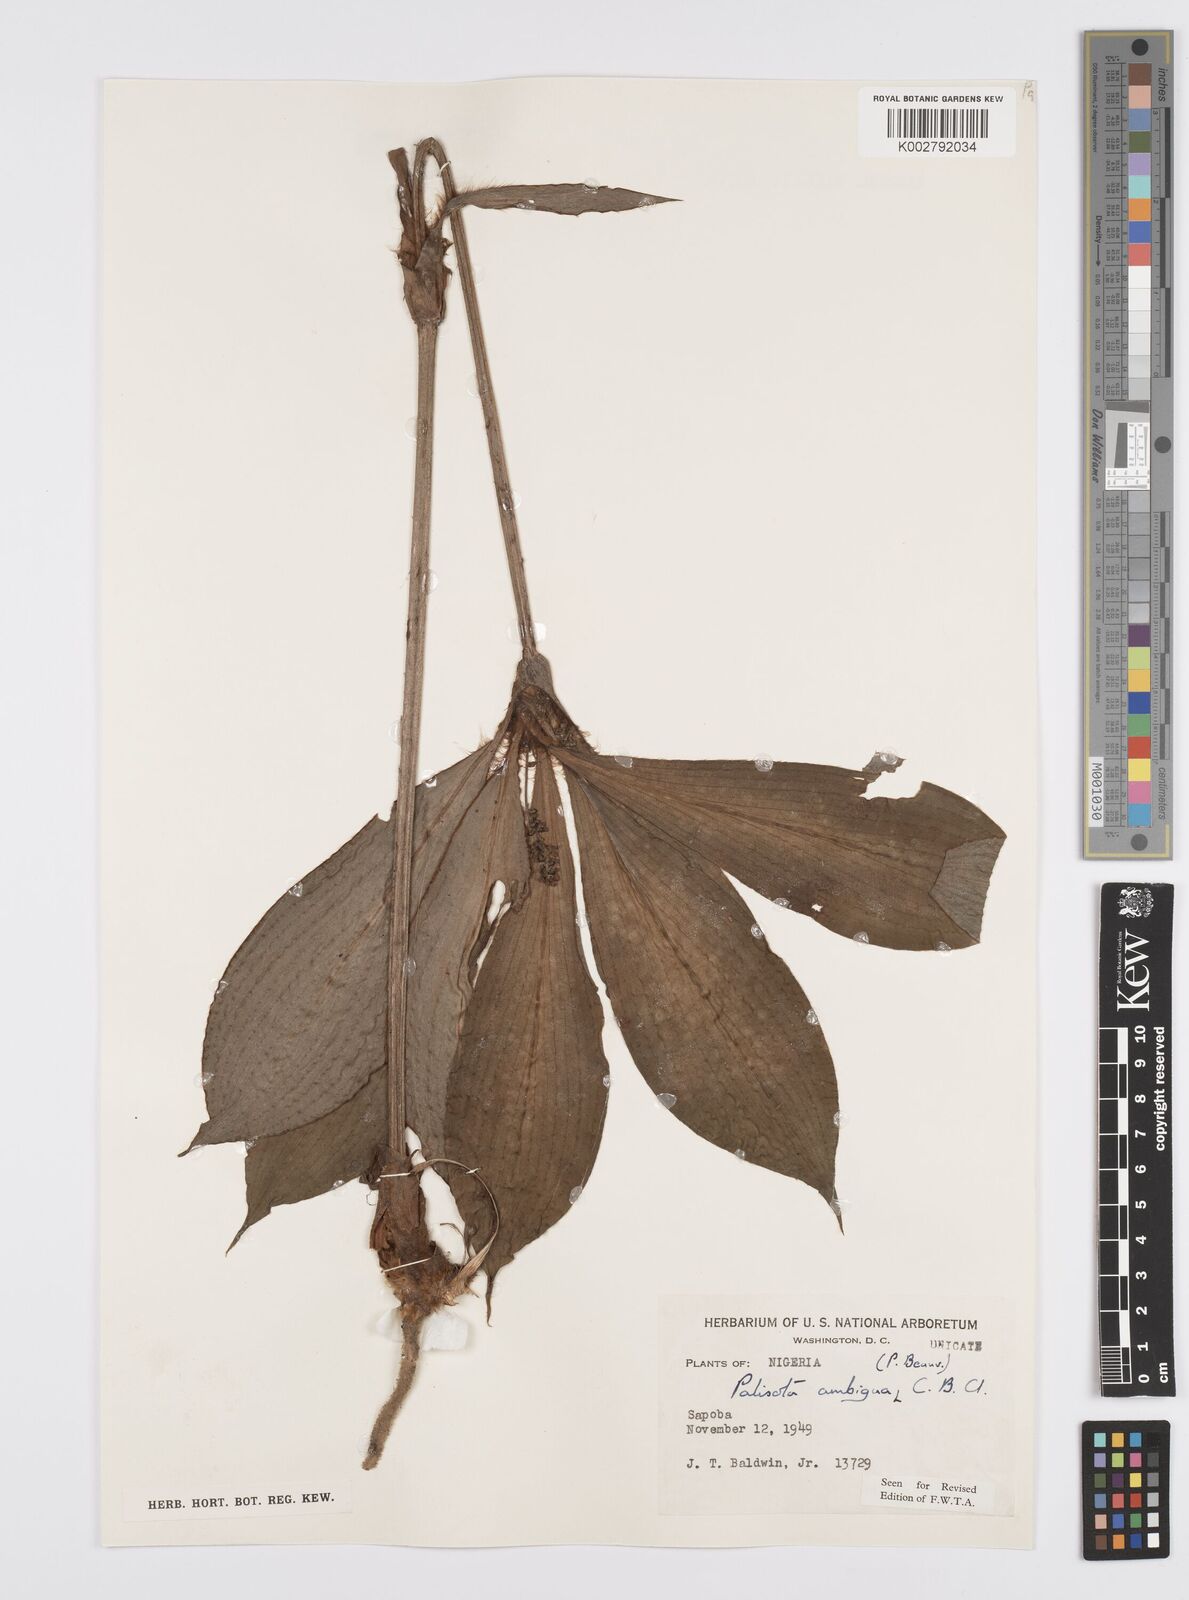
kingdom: Plantae
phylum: Tracheophyta
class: Liliopsida
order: Commelinales
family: Commelinaceae
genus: Palisota
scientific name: Palisota ambigua
